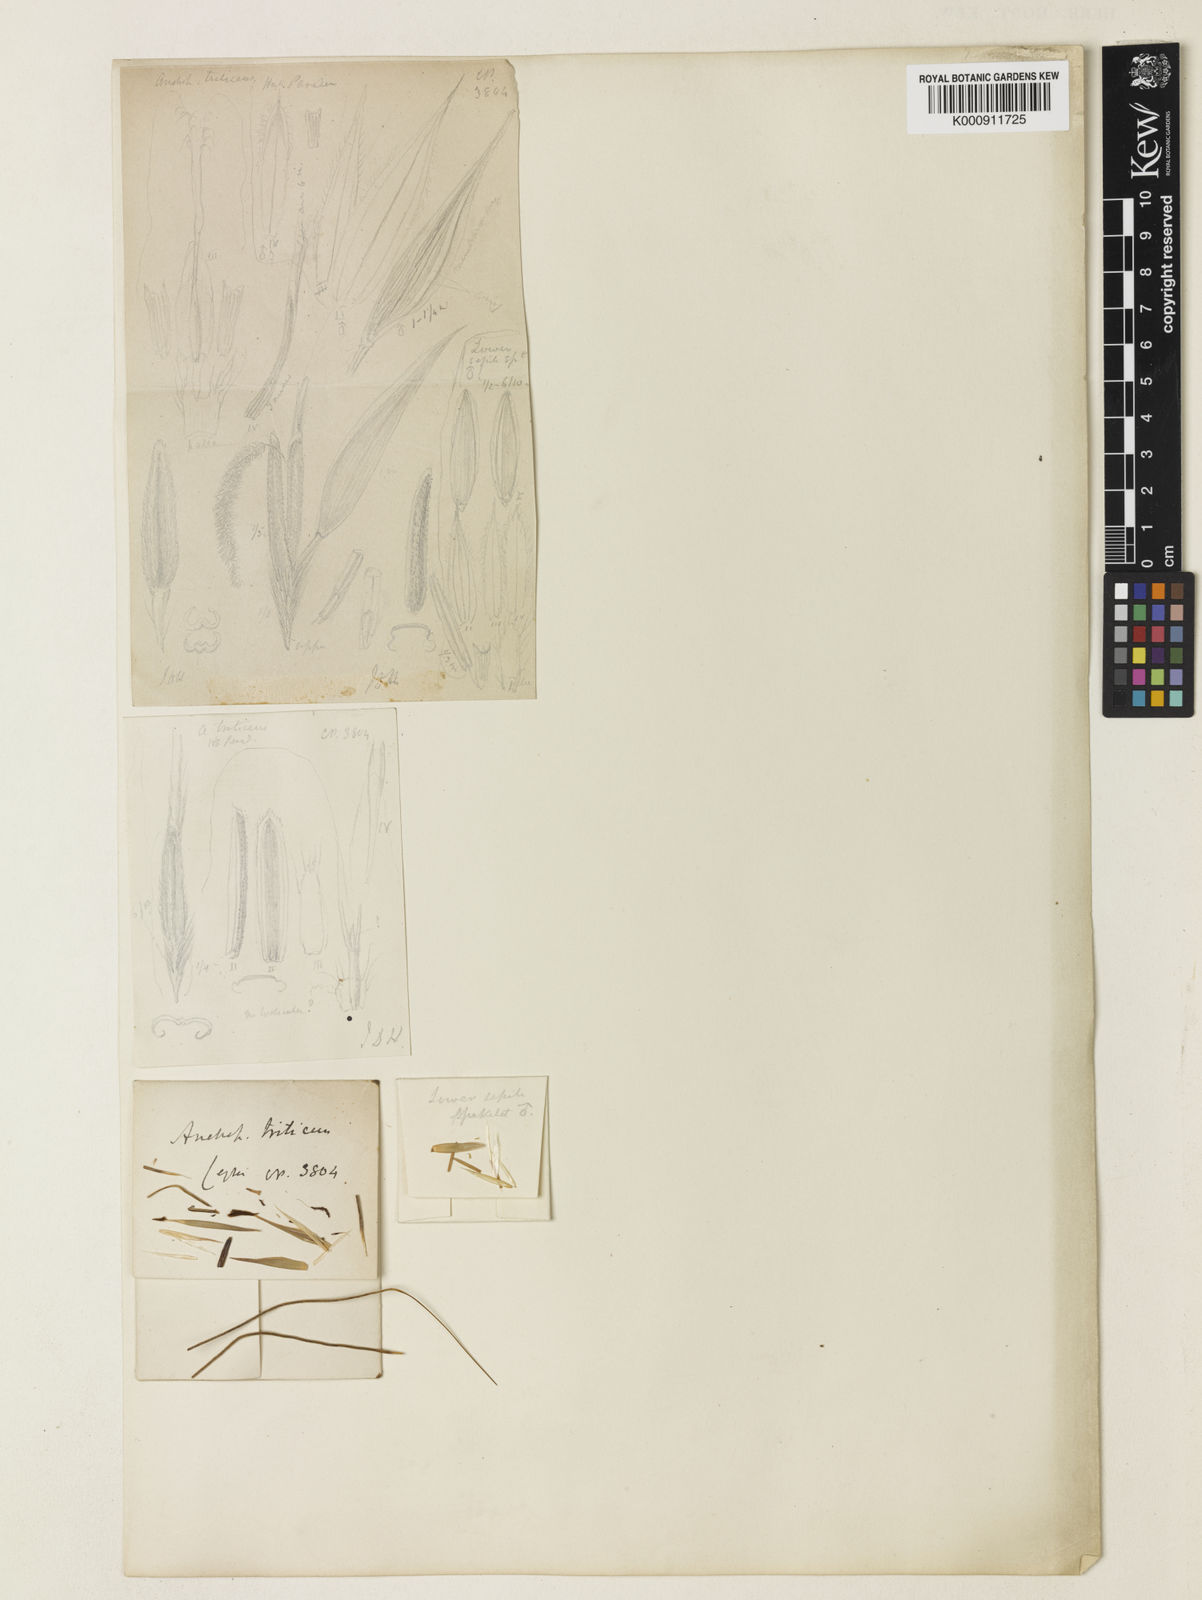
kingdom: Plantae
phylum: Tracheophyta
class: Liliopsida
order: Poales
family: Poaceae
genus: Heteropogon
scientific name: Heteropogon triticeus
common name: Sugar grass
